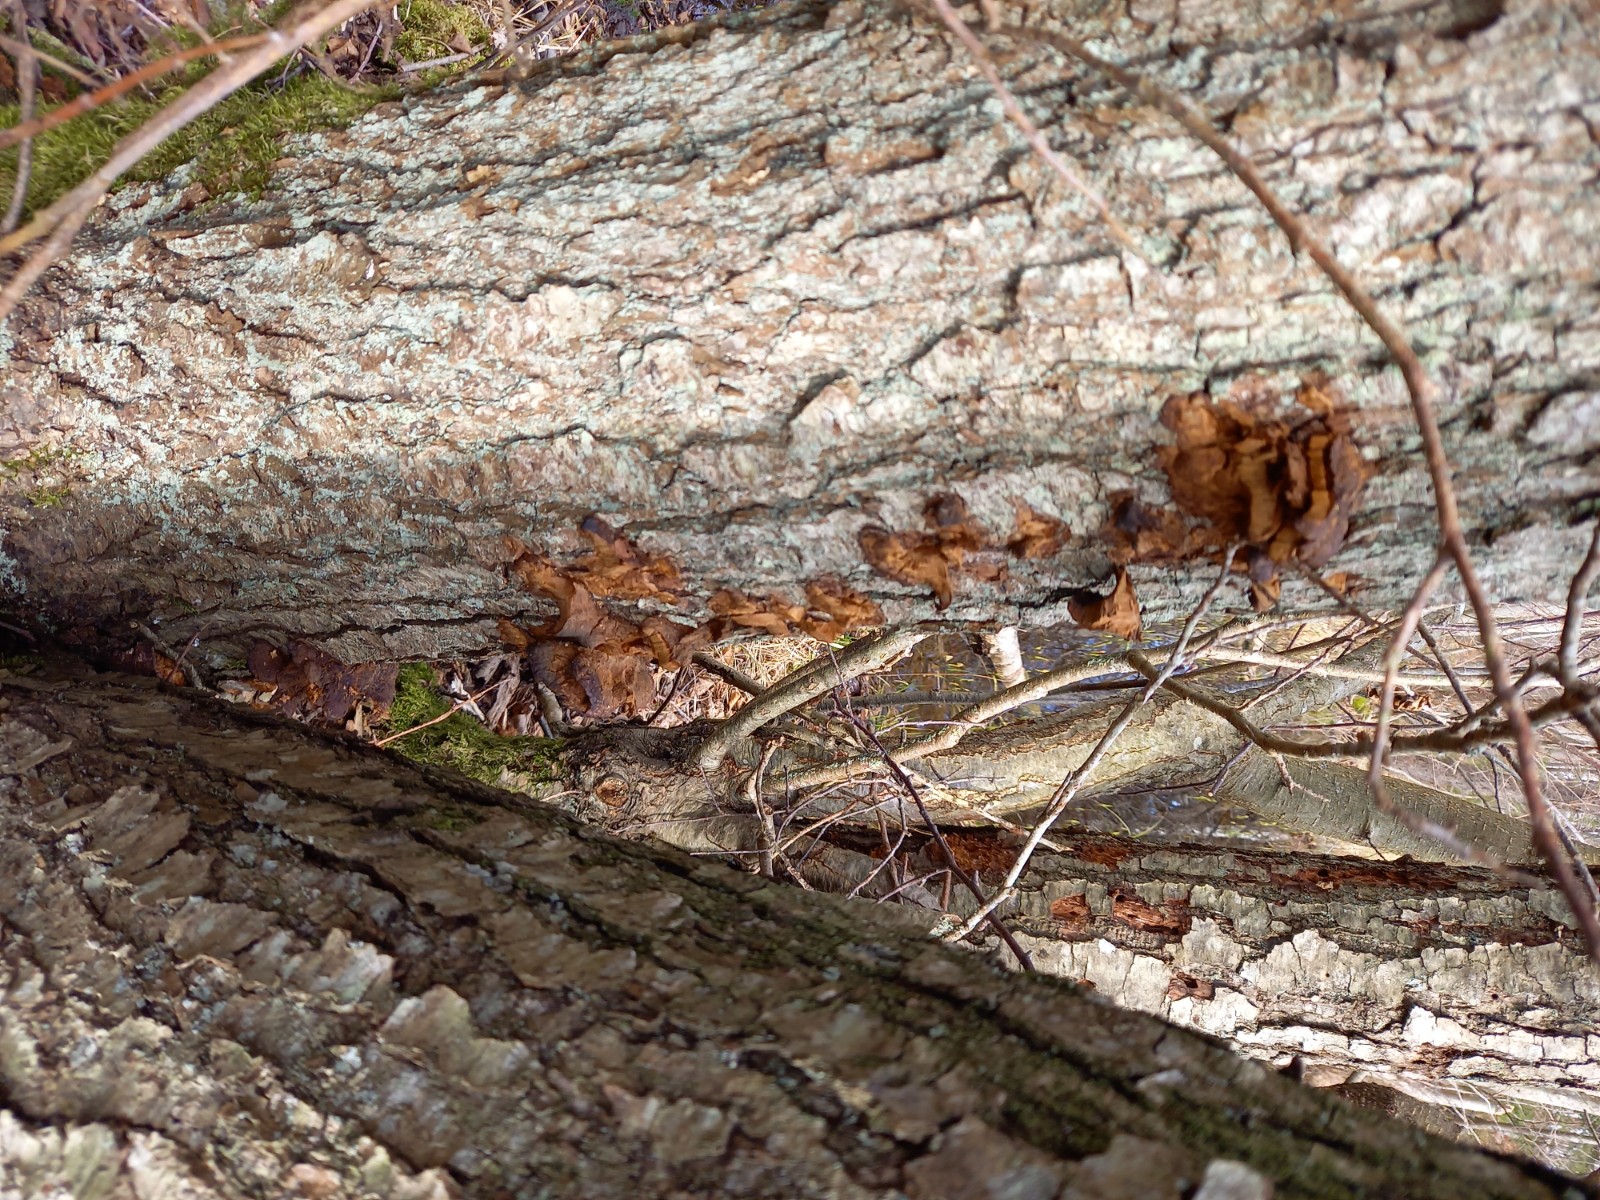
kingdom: Fungi
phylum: Basidiomycota
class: Agaricomycetes
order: Hymenochaetales
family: Hymenochaetaceae
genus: Xanthoporia
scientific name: Xanthoporia radiata
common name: elle-spejlporesvamp
